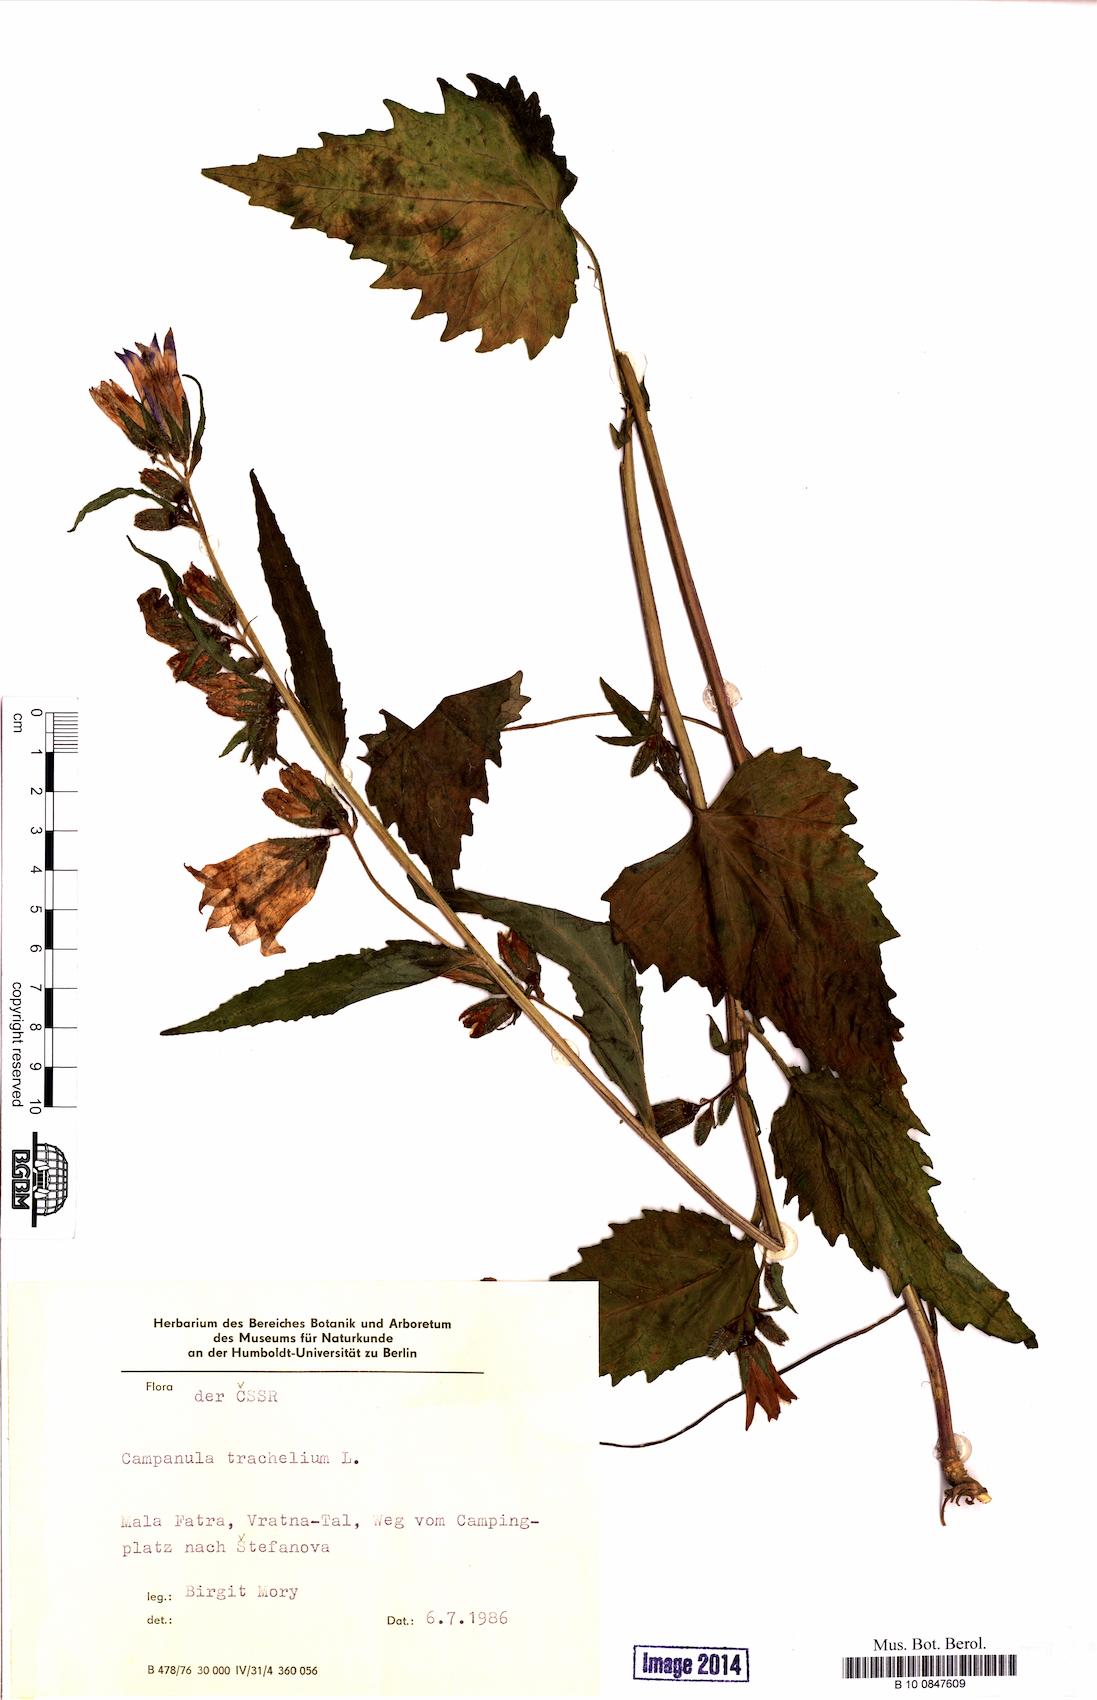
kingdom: Plantae
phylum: Tracheophyta
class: Magnoliopsida
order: Asterales
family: Campanulaceae
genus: Campanula
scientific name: Campanula trachelium
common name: Nettle-leaved bellflower
